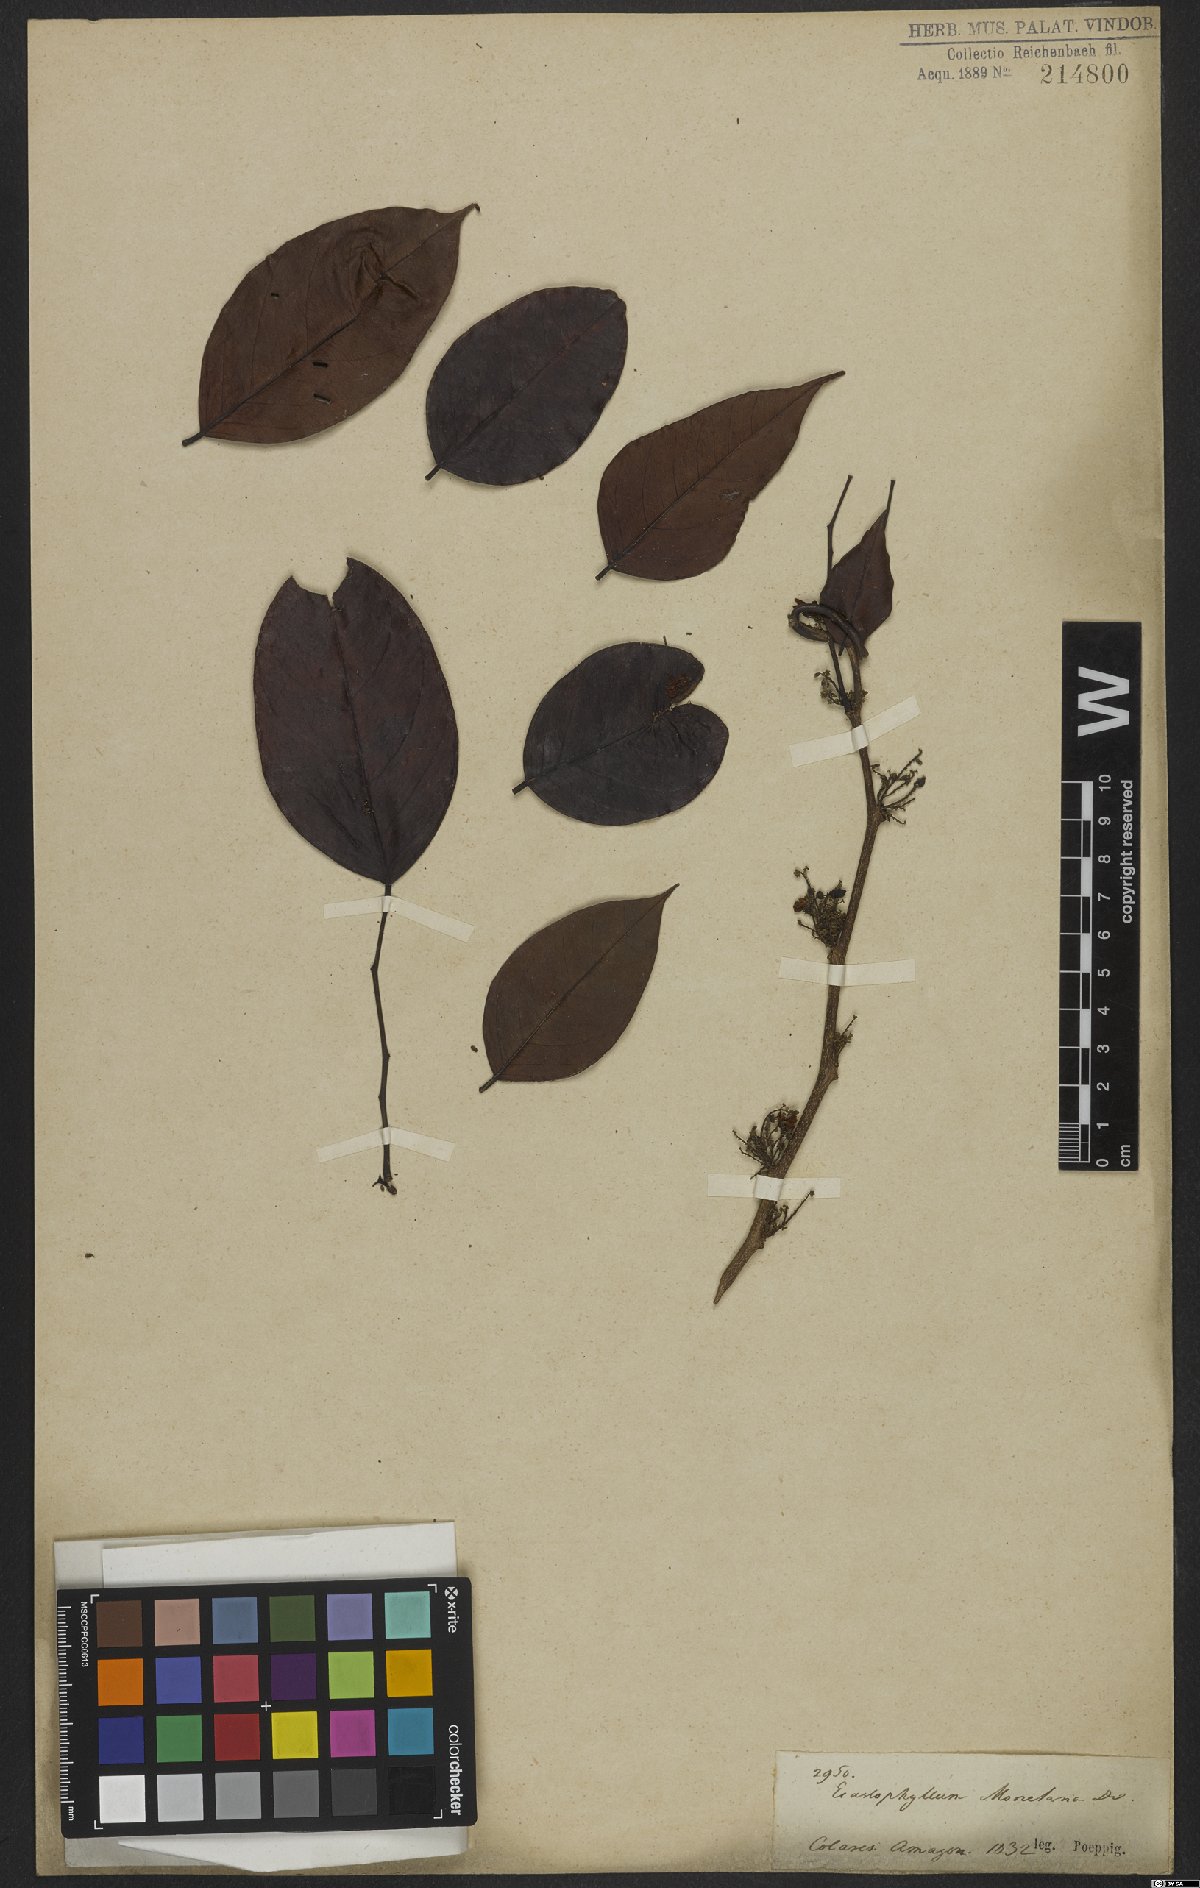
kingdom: Plantae
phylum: Tracheophyta
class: Magnoliopsida
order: Fabales
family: Fabaceae
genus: Dalbergia
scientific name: Dalbergia ovalis
